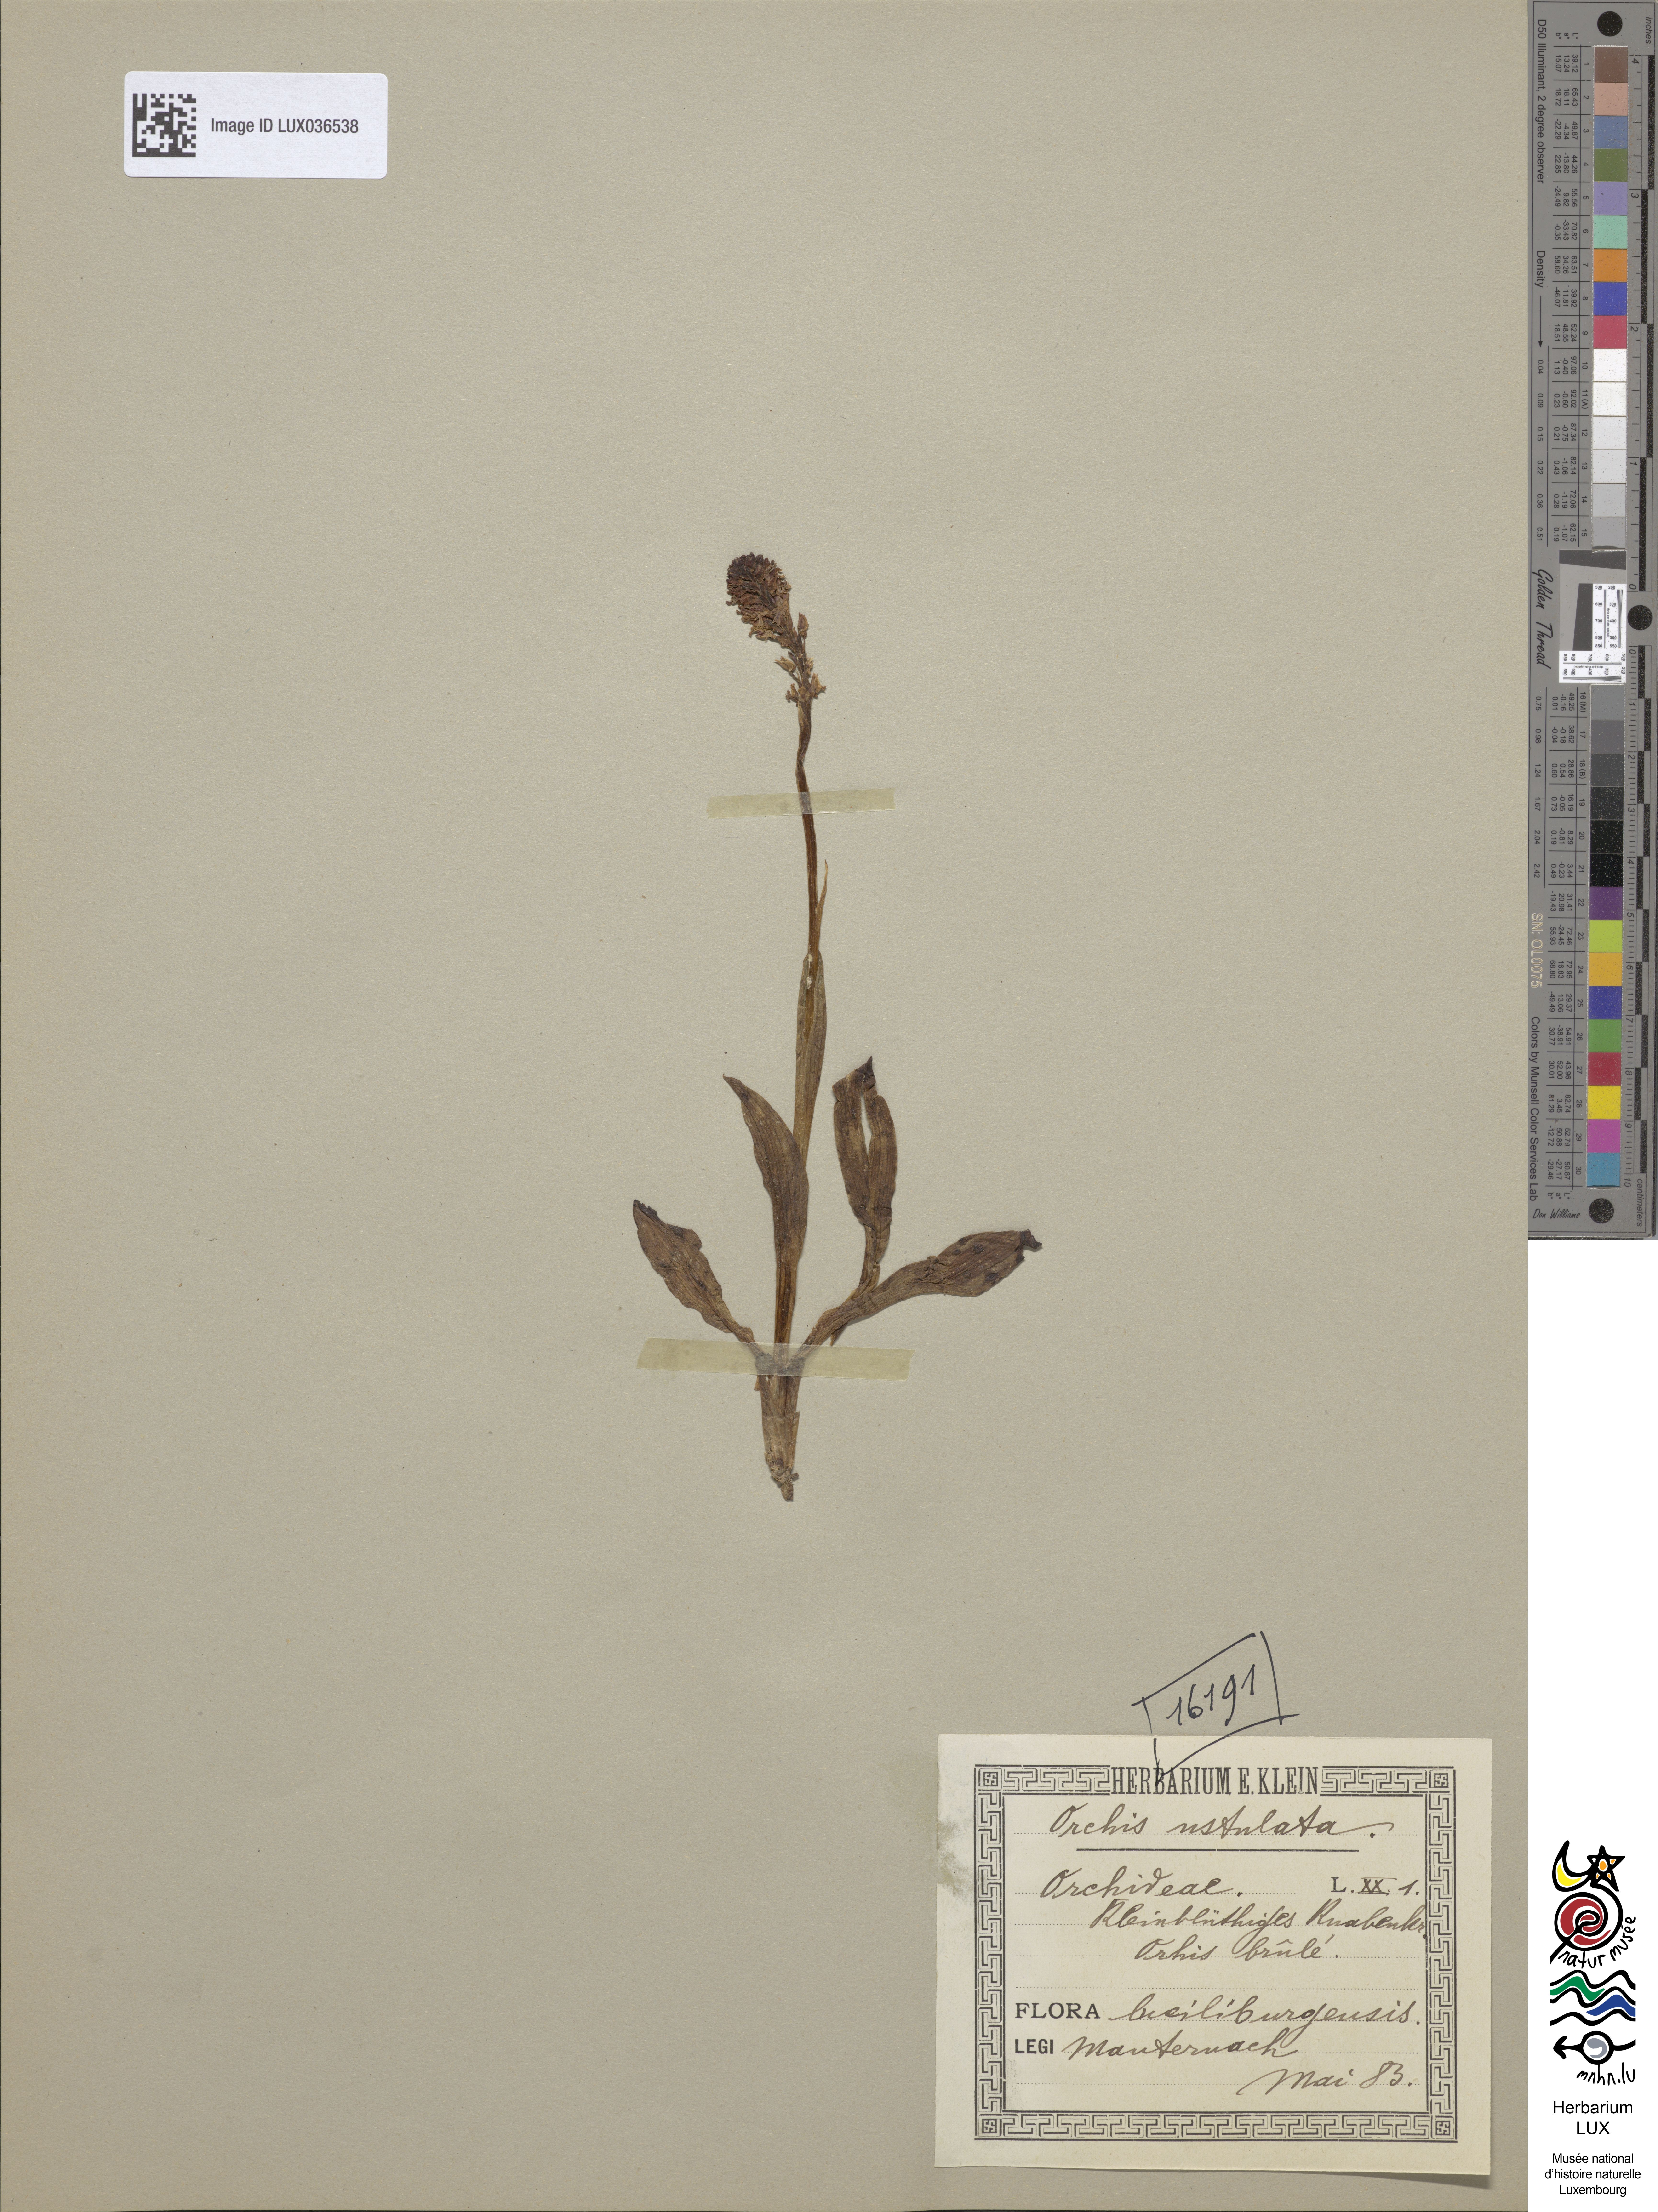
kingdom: Plantae
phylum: Tracheophyta
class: Liliopsida
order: Asparagales
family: Orchidaceae
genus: Neotinea
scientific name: Neotinea ustulata
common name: Burnt orchid
